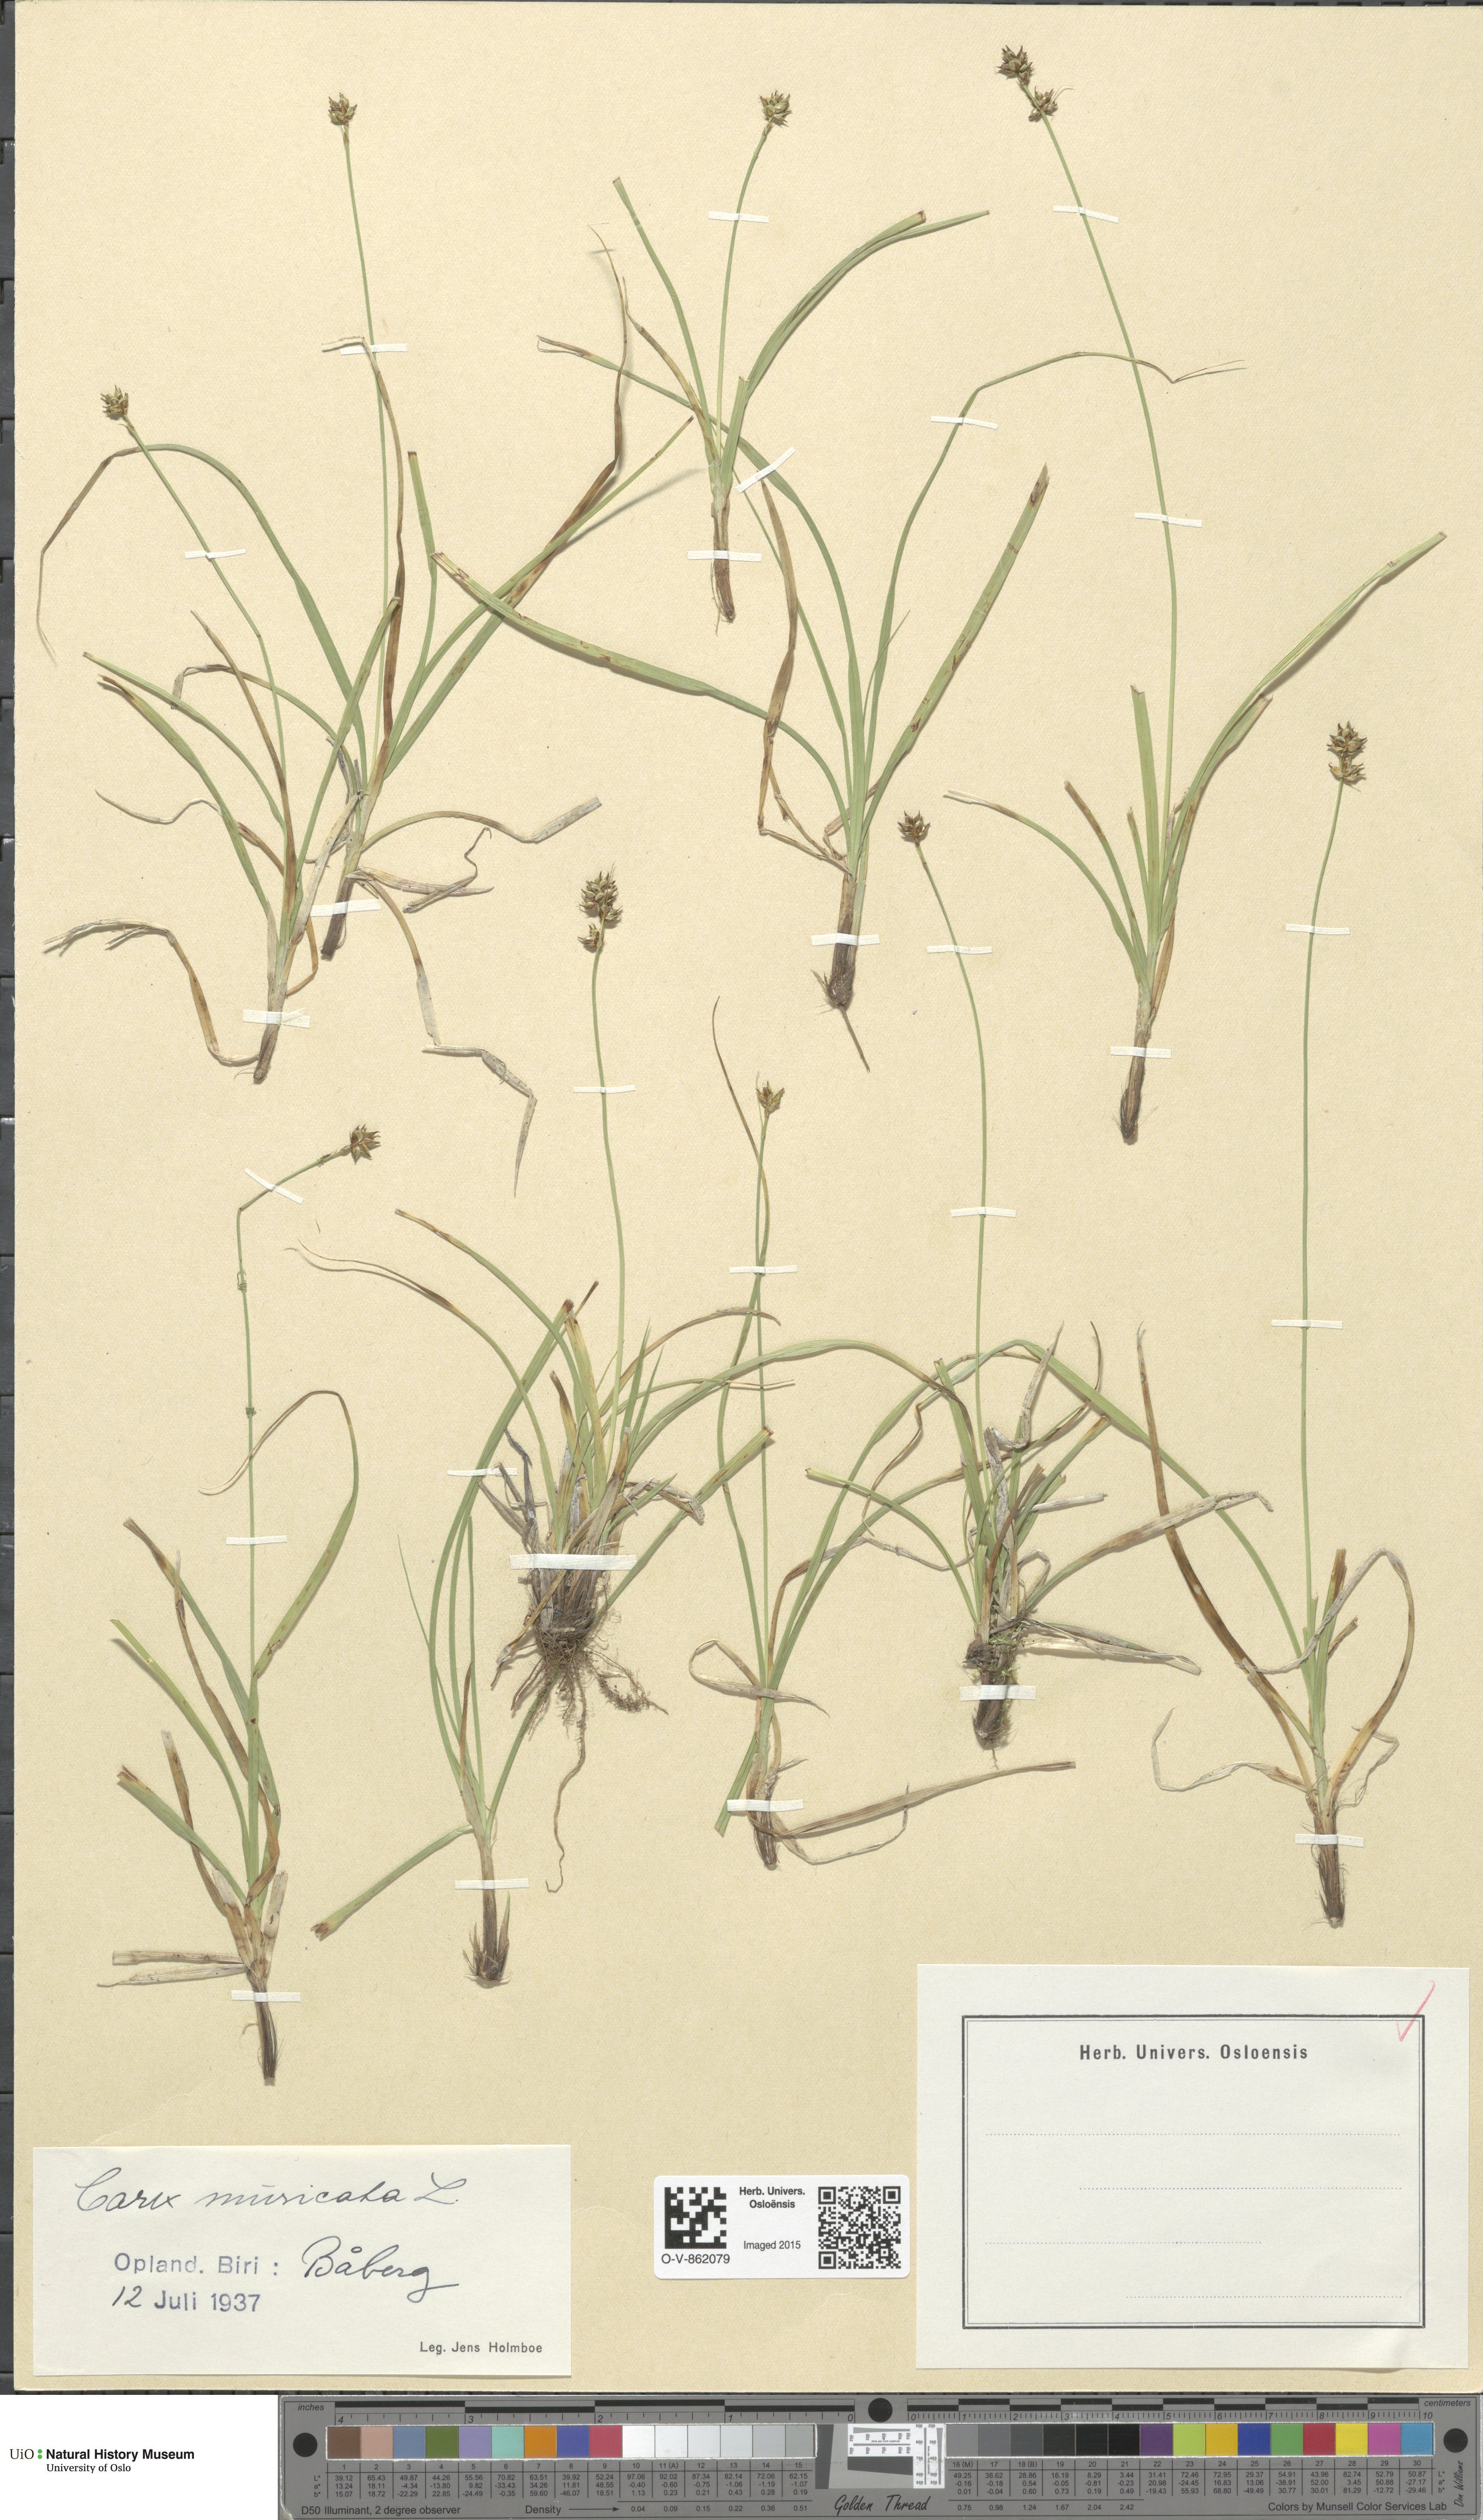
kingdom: Plantae
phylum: Tracheophyta
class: Liliopsida
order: Poales
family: Cyperaceae
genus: Carex
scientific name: Carex echinata
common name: Star sedge
